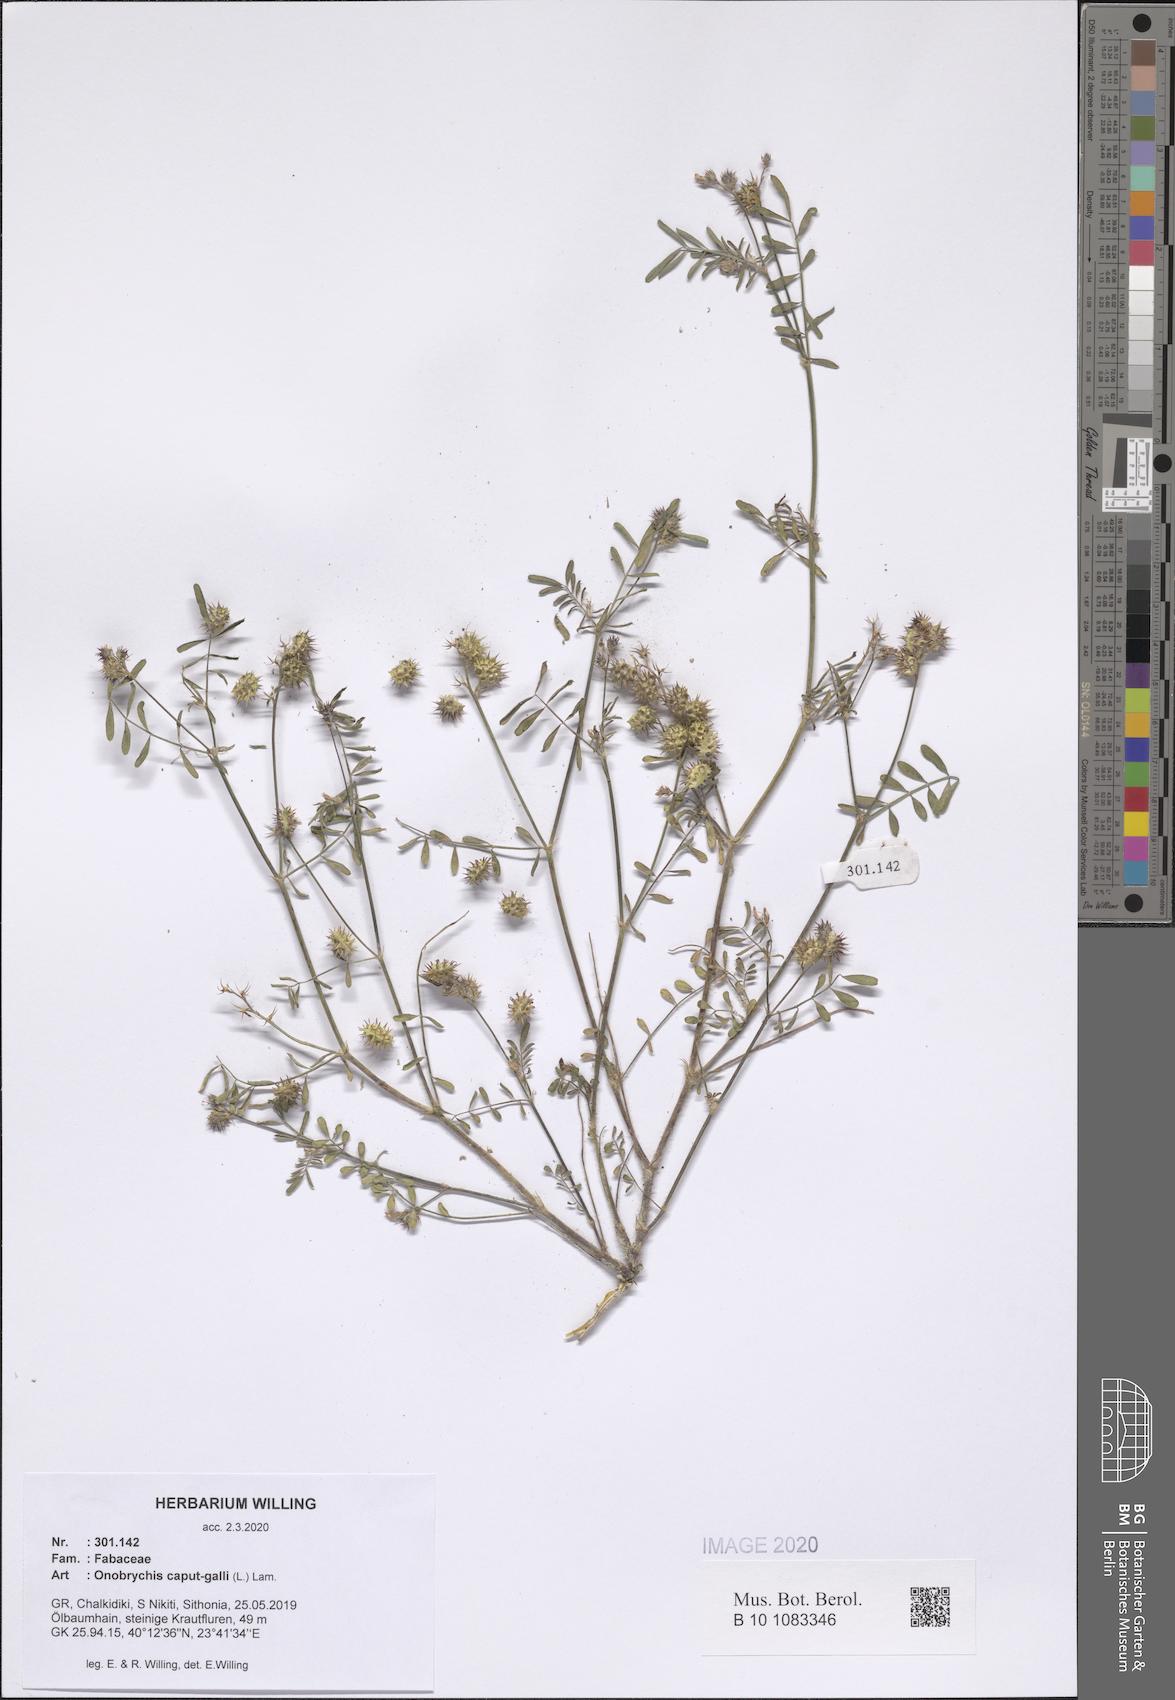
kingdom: Plantae
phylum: Tracheophyta
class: Magnoliopsida
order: Fabales
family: Fabaceae
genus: Onobrychis
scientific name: Onobrychis caput-galli
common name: Cockscomb sainfoin
